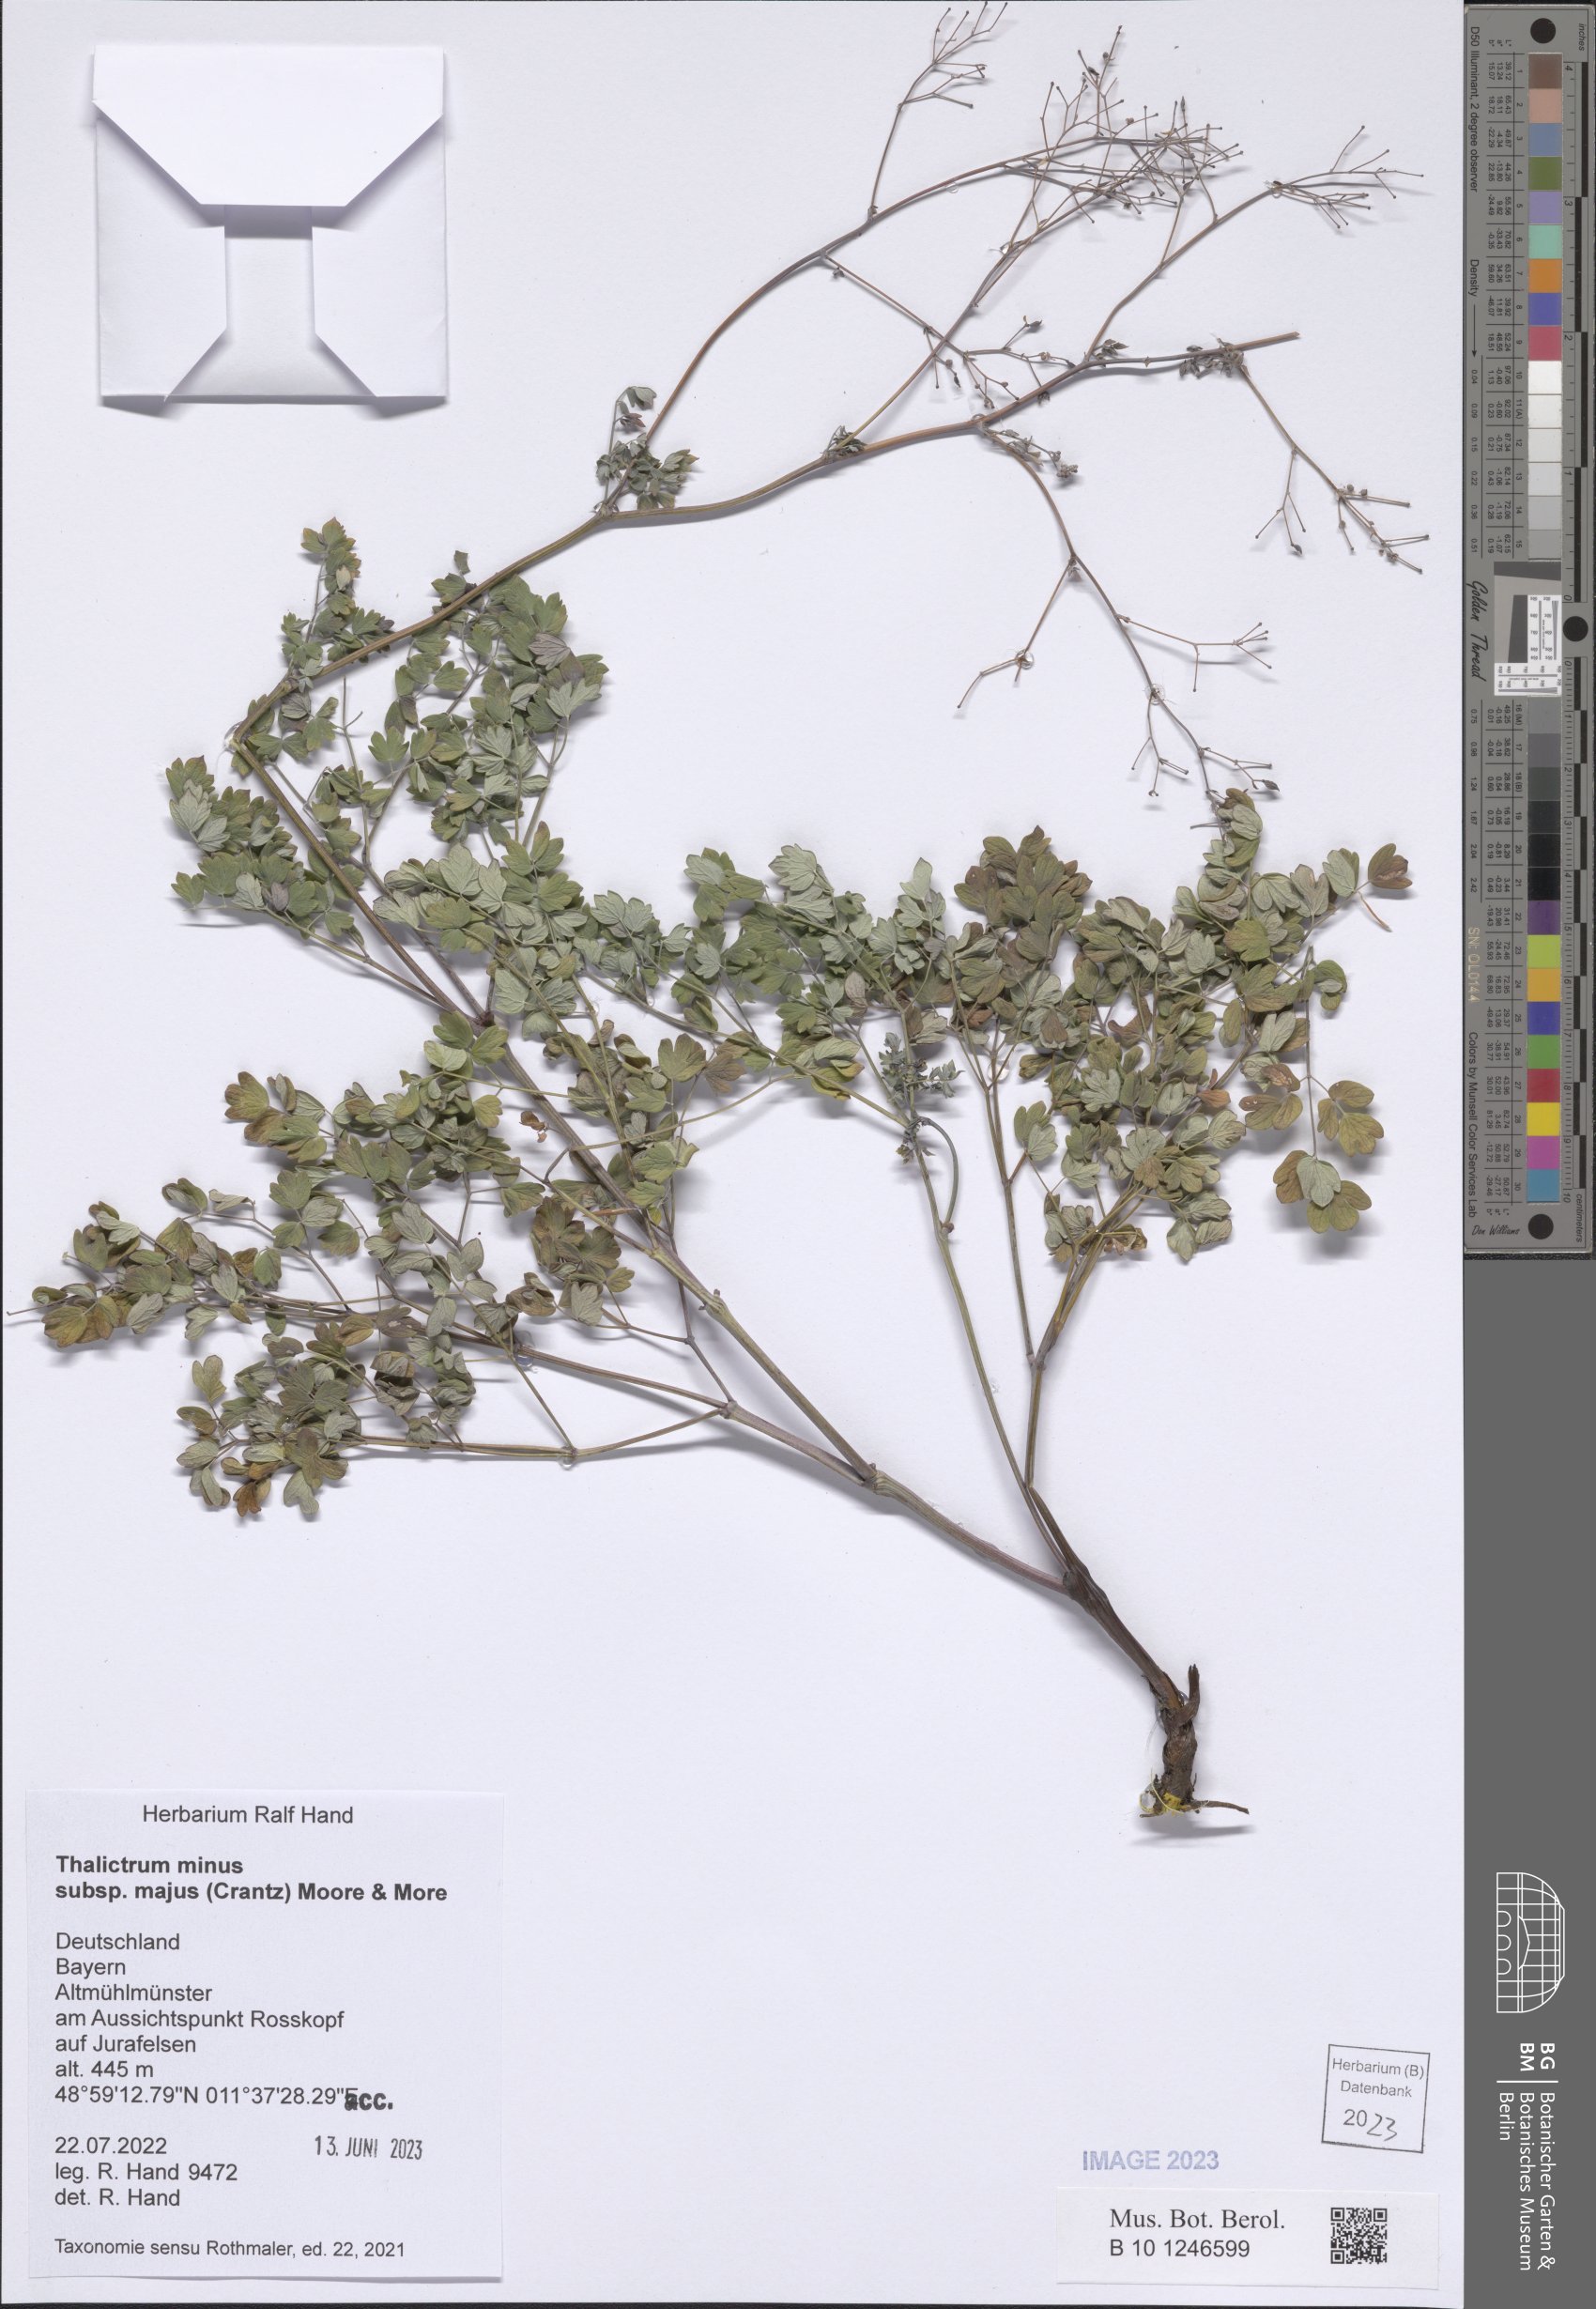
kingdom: Plantae
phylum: Tracheophyta
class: Magnoliopsida
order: Ranunculales
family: Ranunculaceae
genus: Thalictrum
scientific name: Thalictrum minus
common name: Lesser meadow-rue
